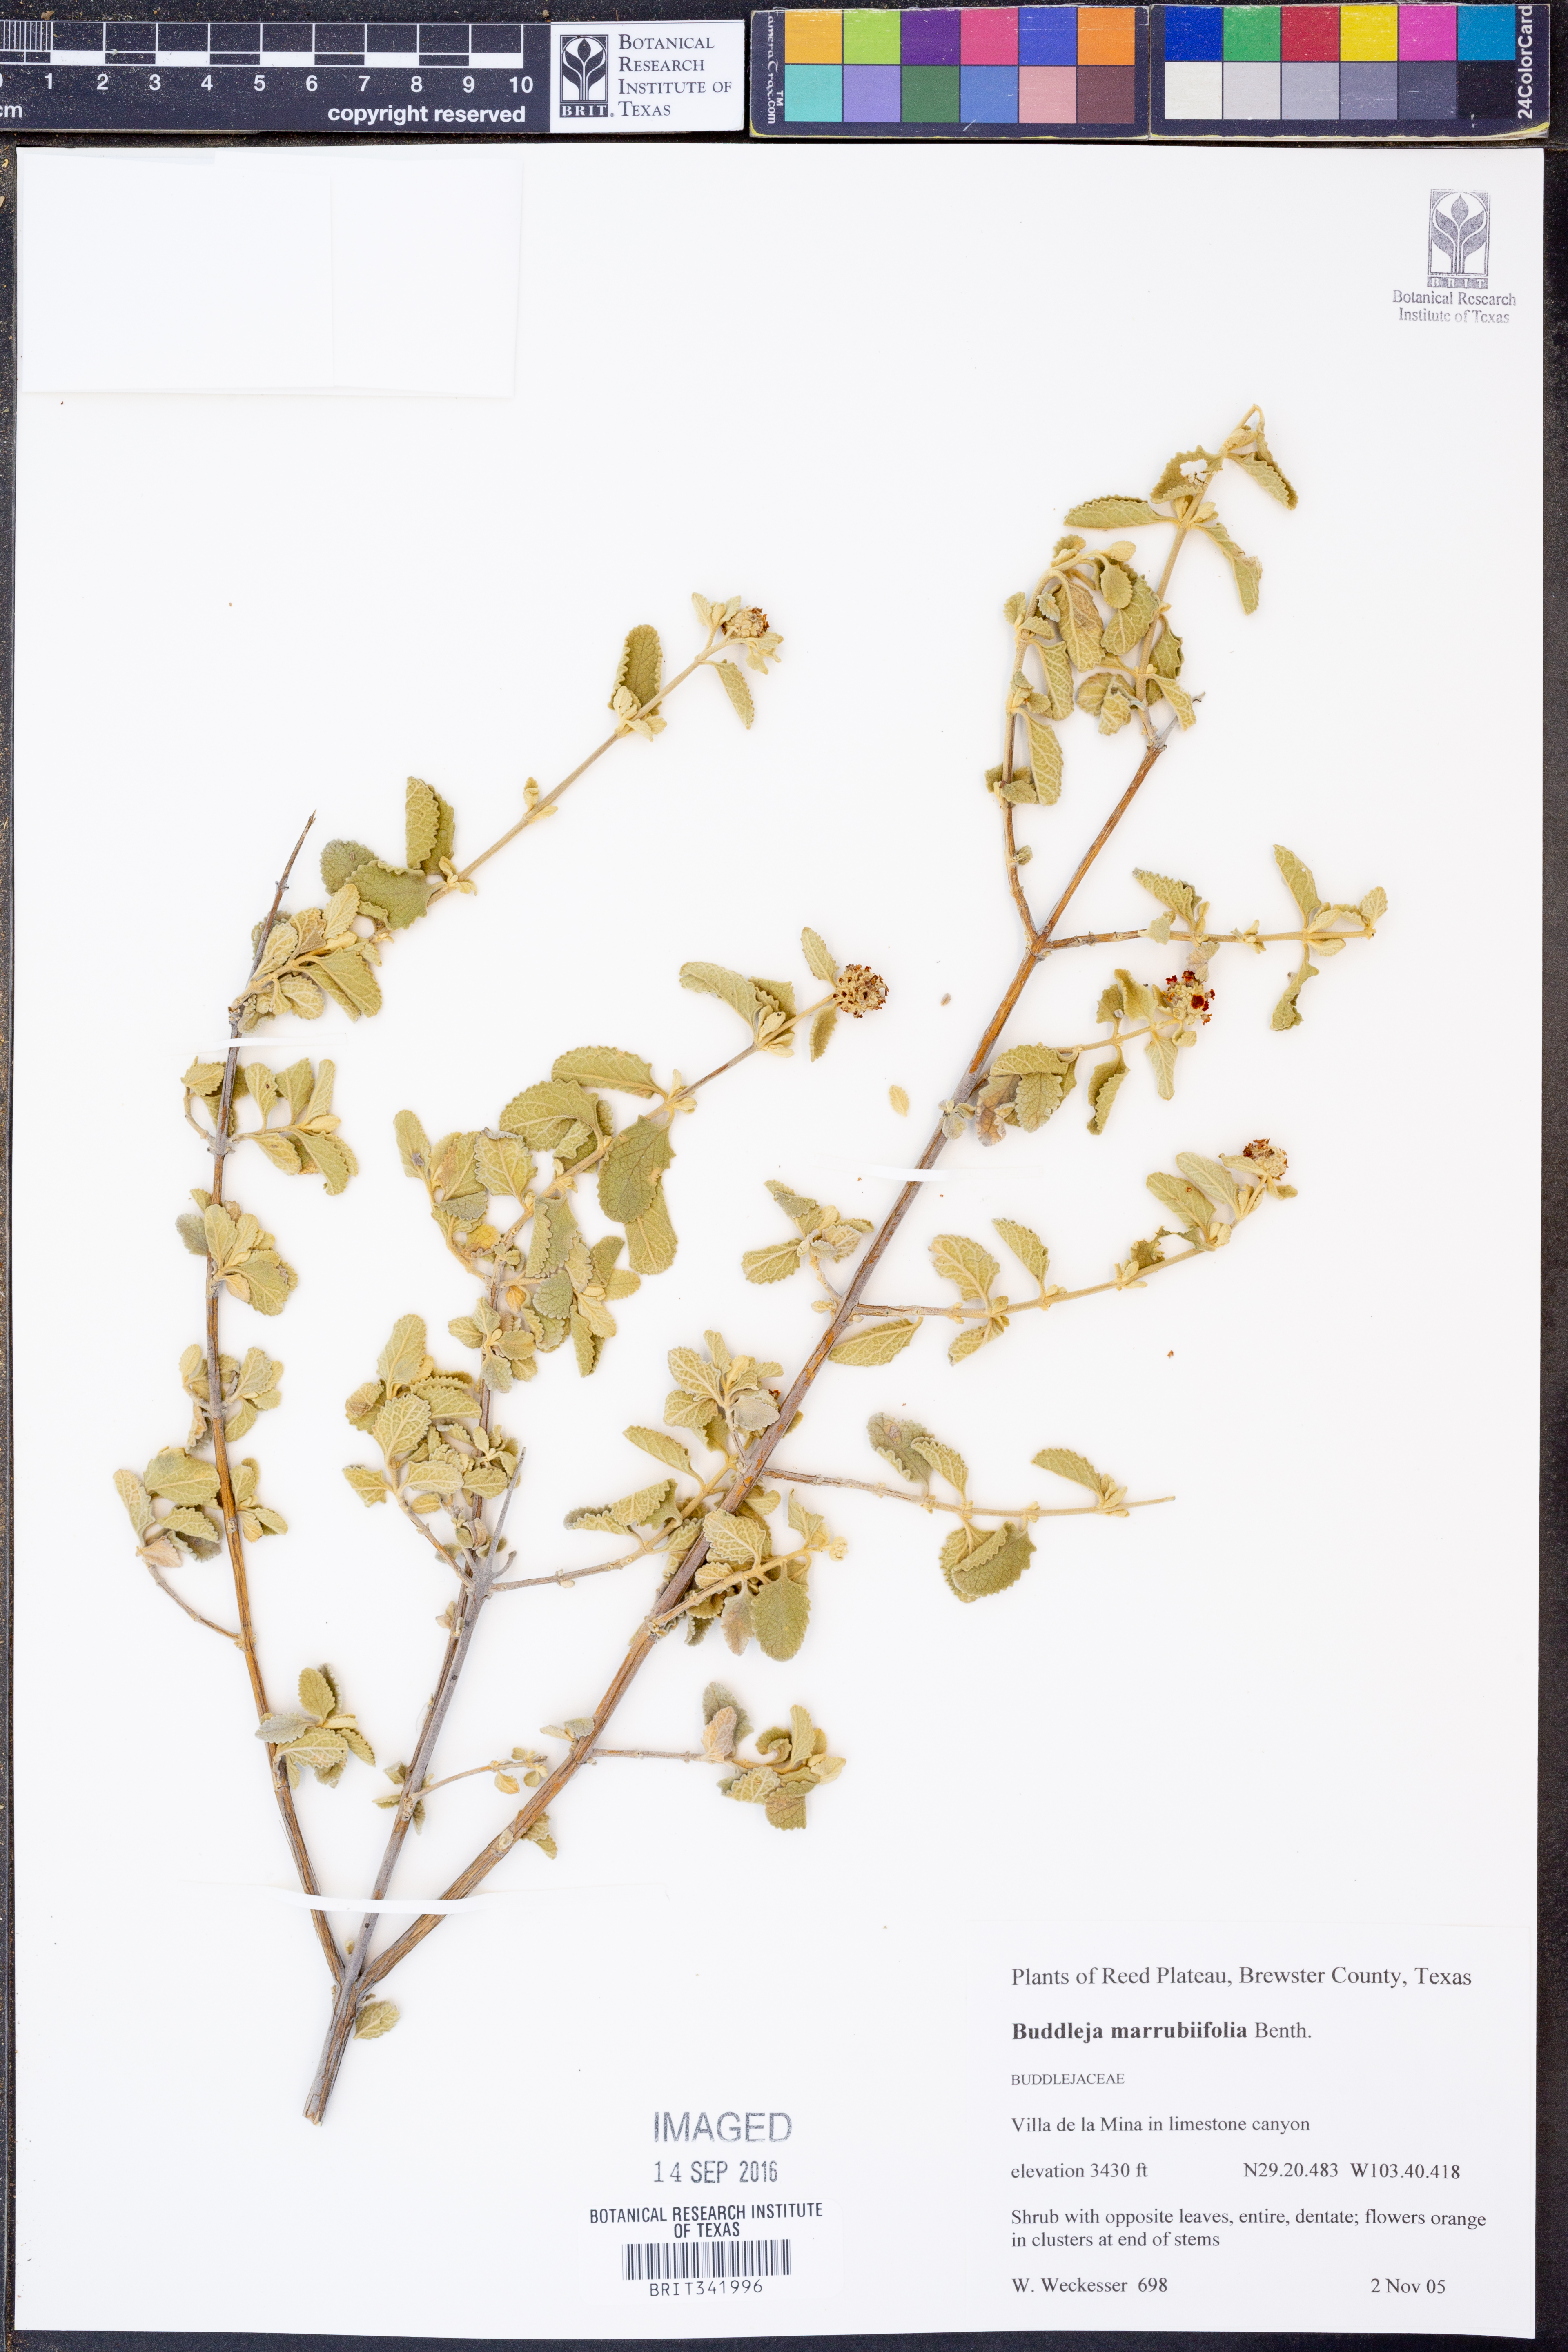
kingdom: Plantae
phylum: Tracheophyta
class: Magnoliopsida
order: Lamiales
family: Scrophulariaceae
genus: Buddleja
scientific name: Buddleja marrubiifolia
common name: Woolly butterfly-bush
